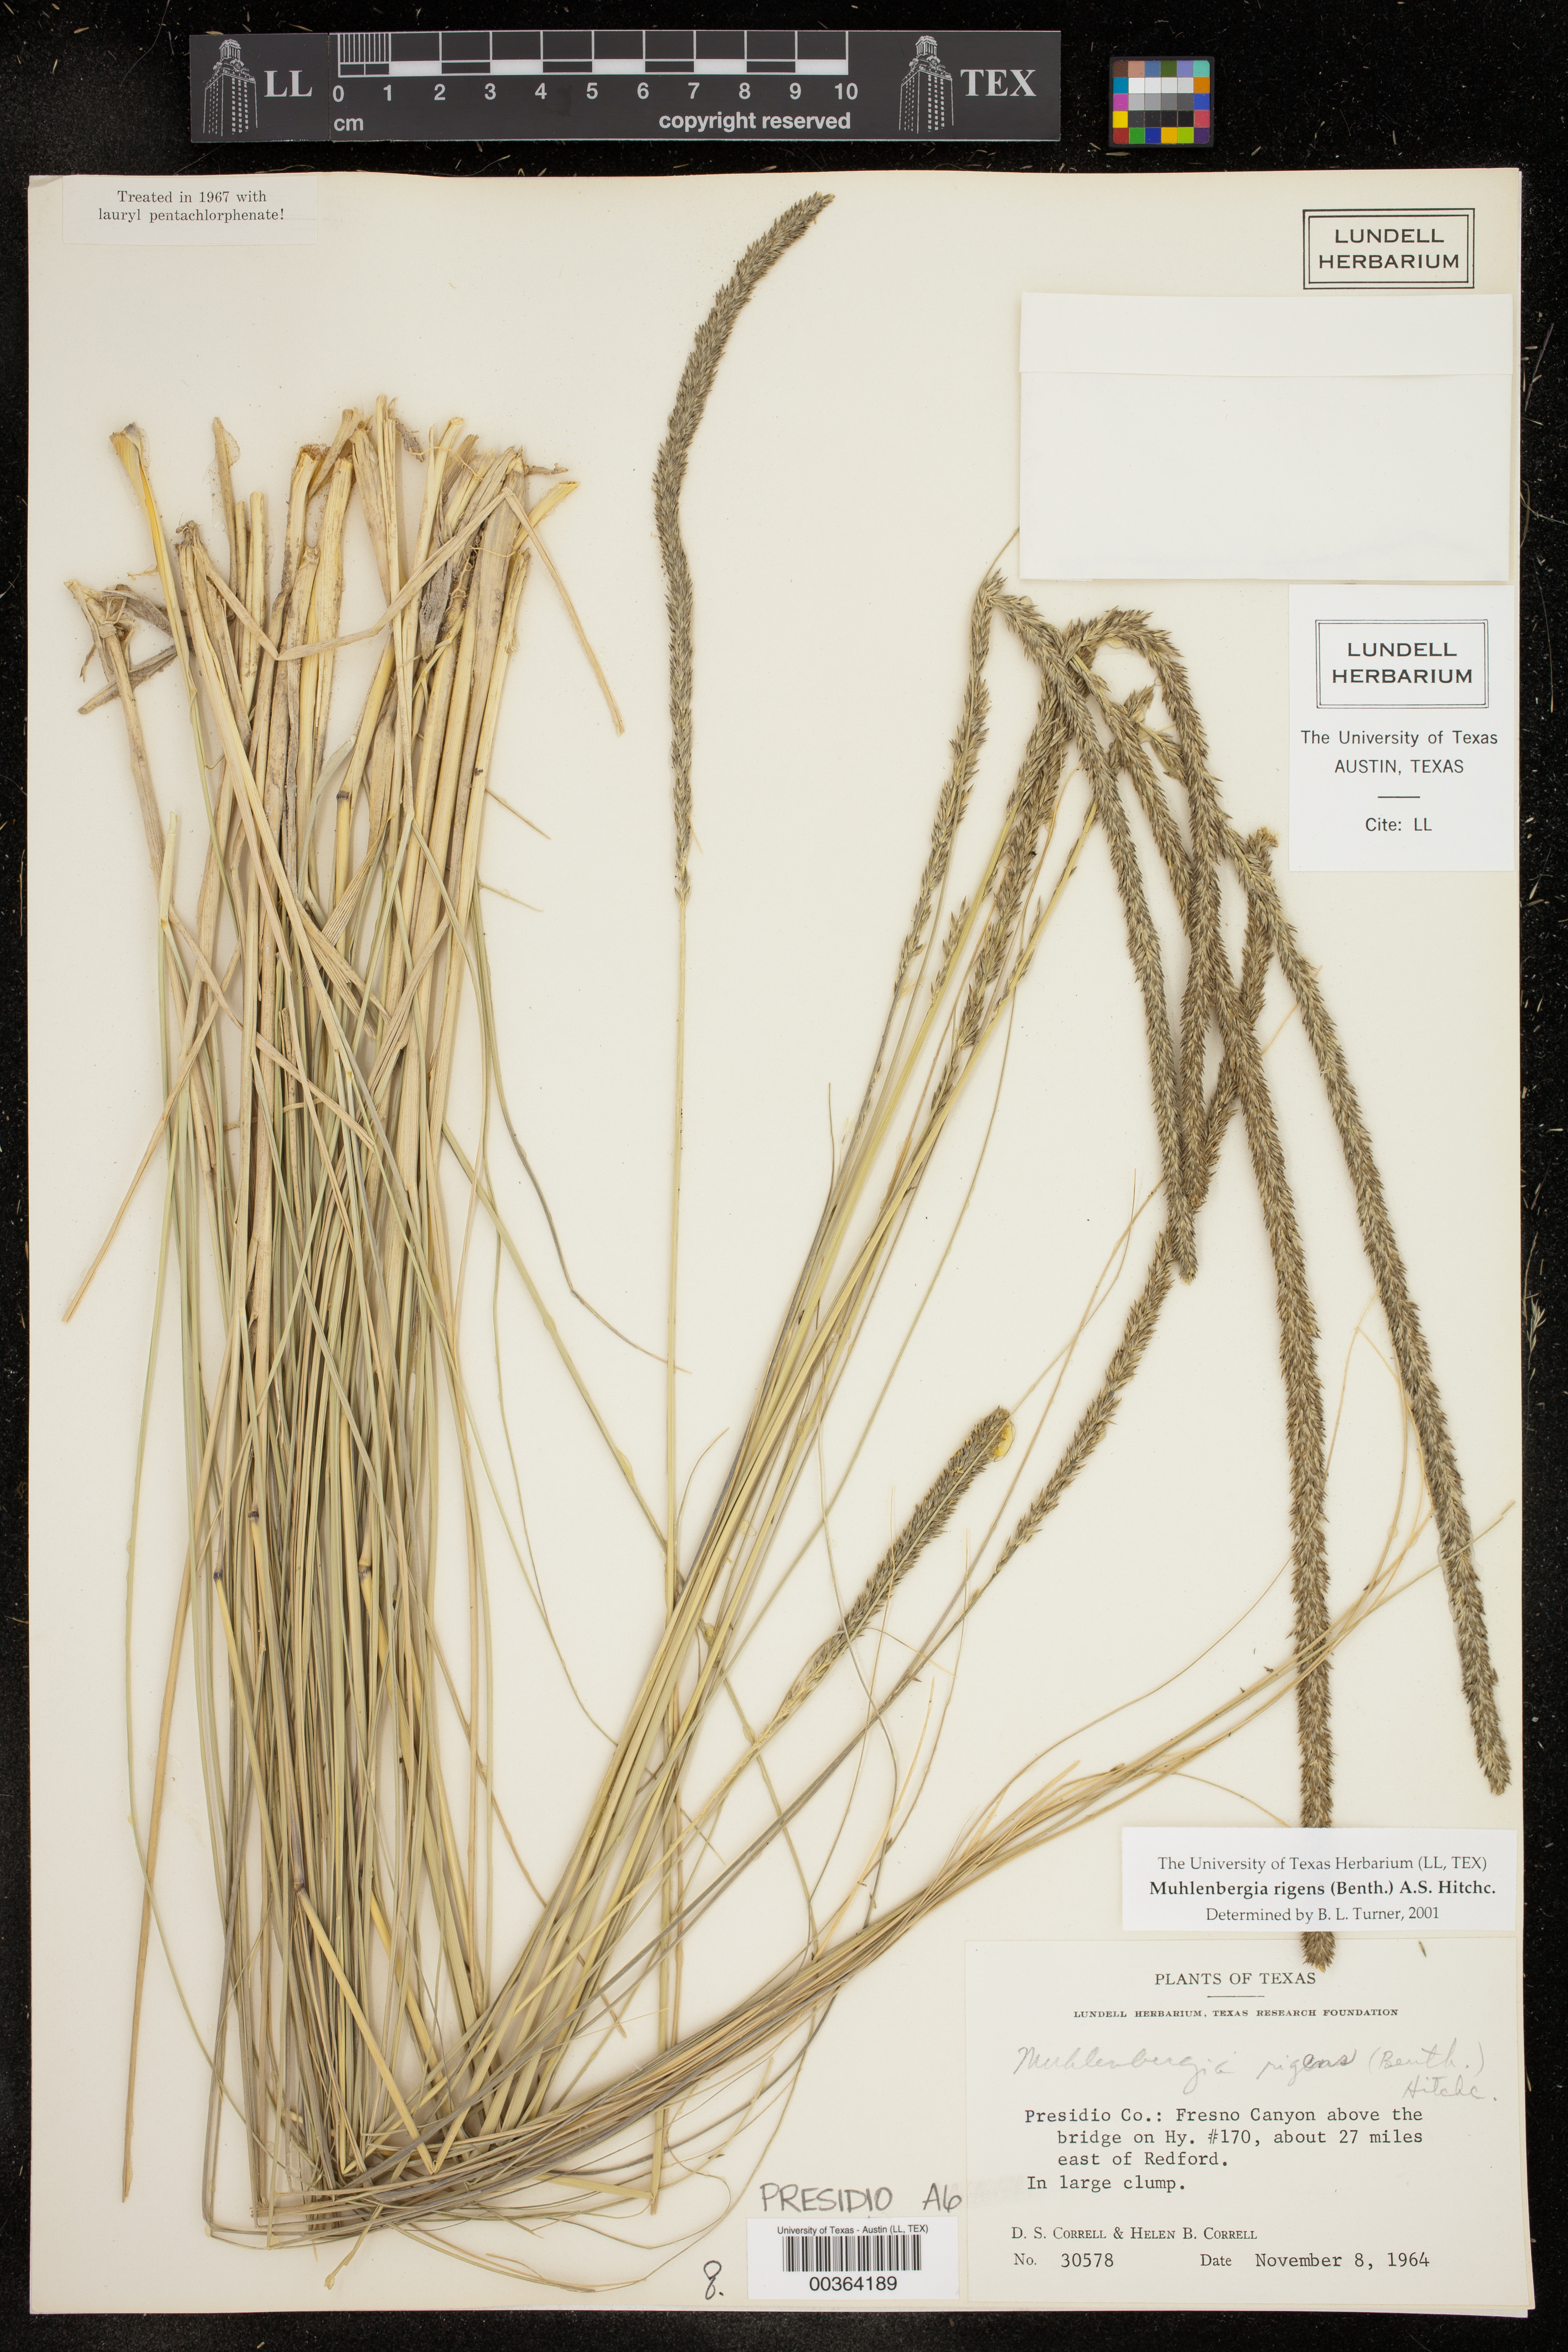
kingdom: Plantae
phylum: Tracheophyta
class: Liliopsida
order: Poales
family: Poaceae
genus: Muhlenbergia
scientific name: Muhlenbergia rigens
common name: Deer grass
